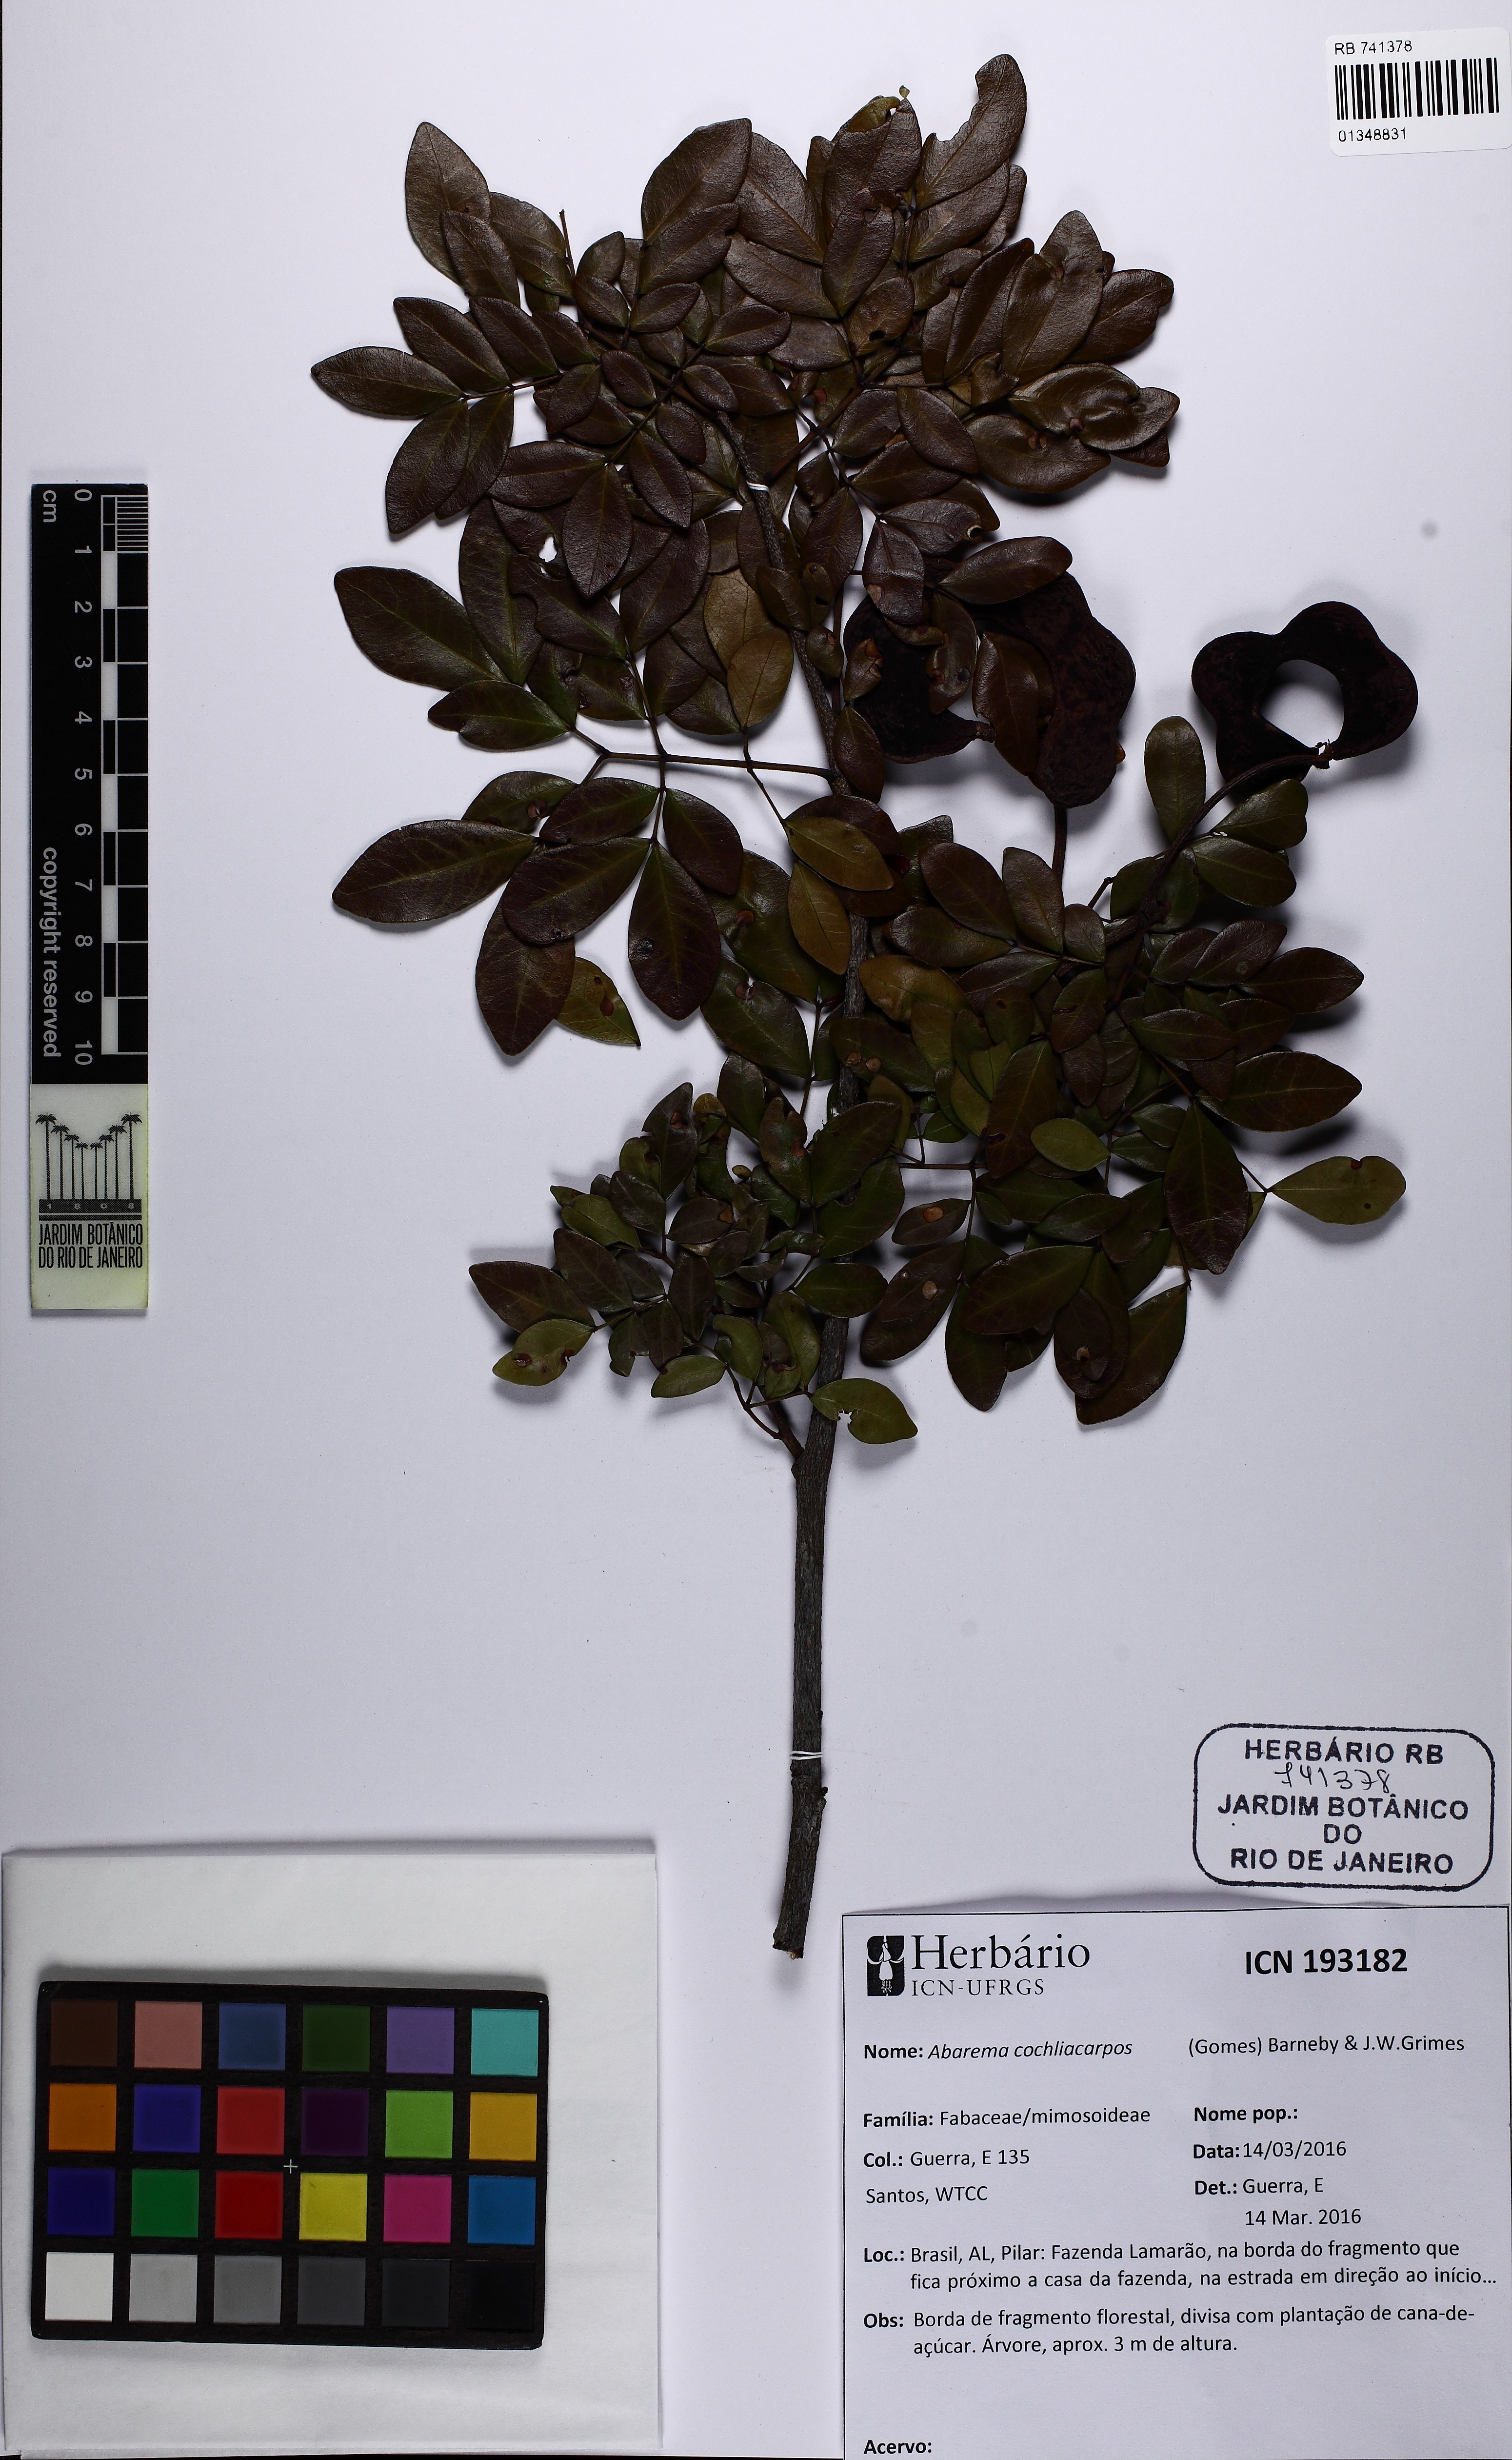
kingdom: Plantae
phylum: Tracheophyta
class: Magnoliopsida
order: Fabales
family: Fabaceae
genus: Abarema
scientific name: Abarema cochliacarpos
